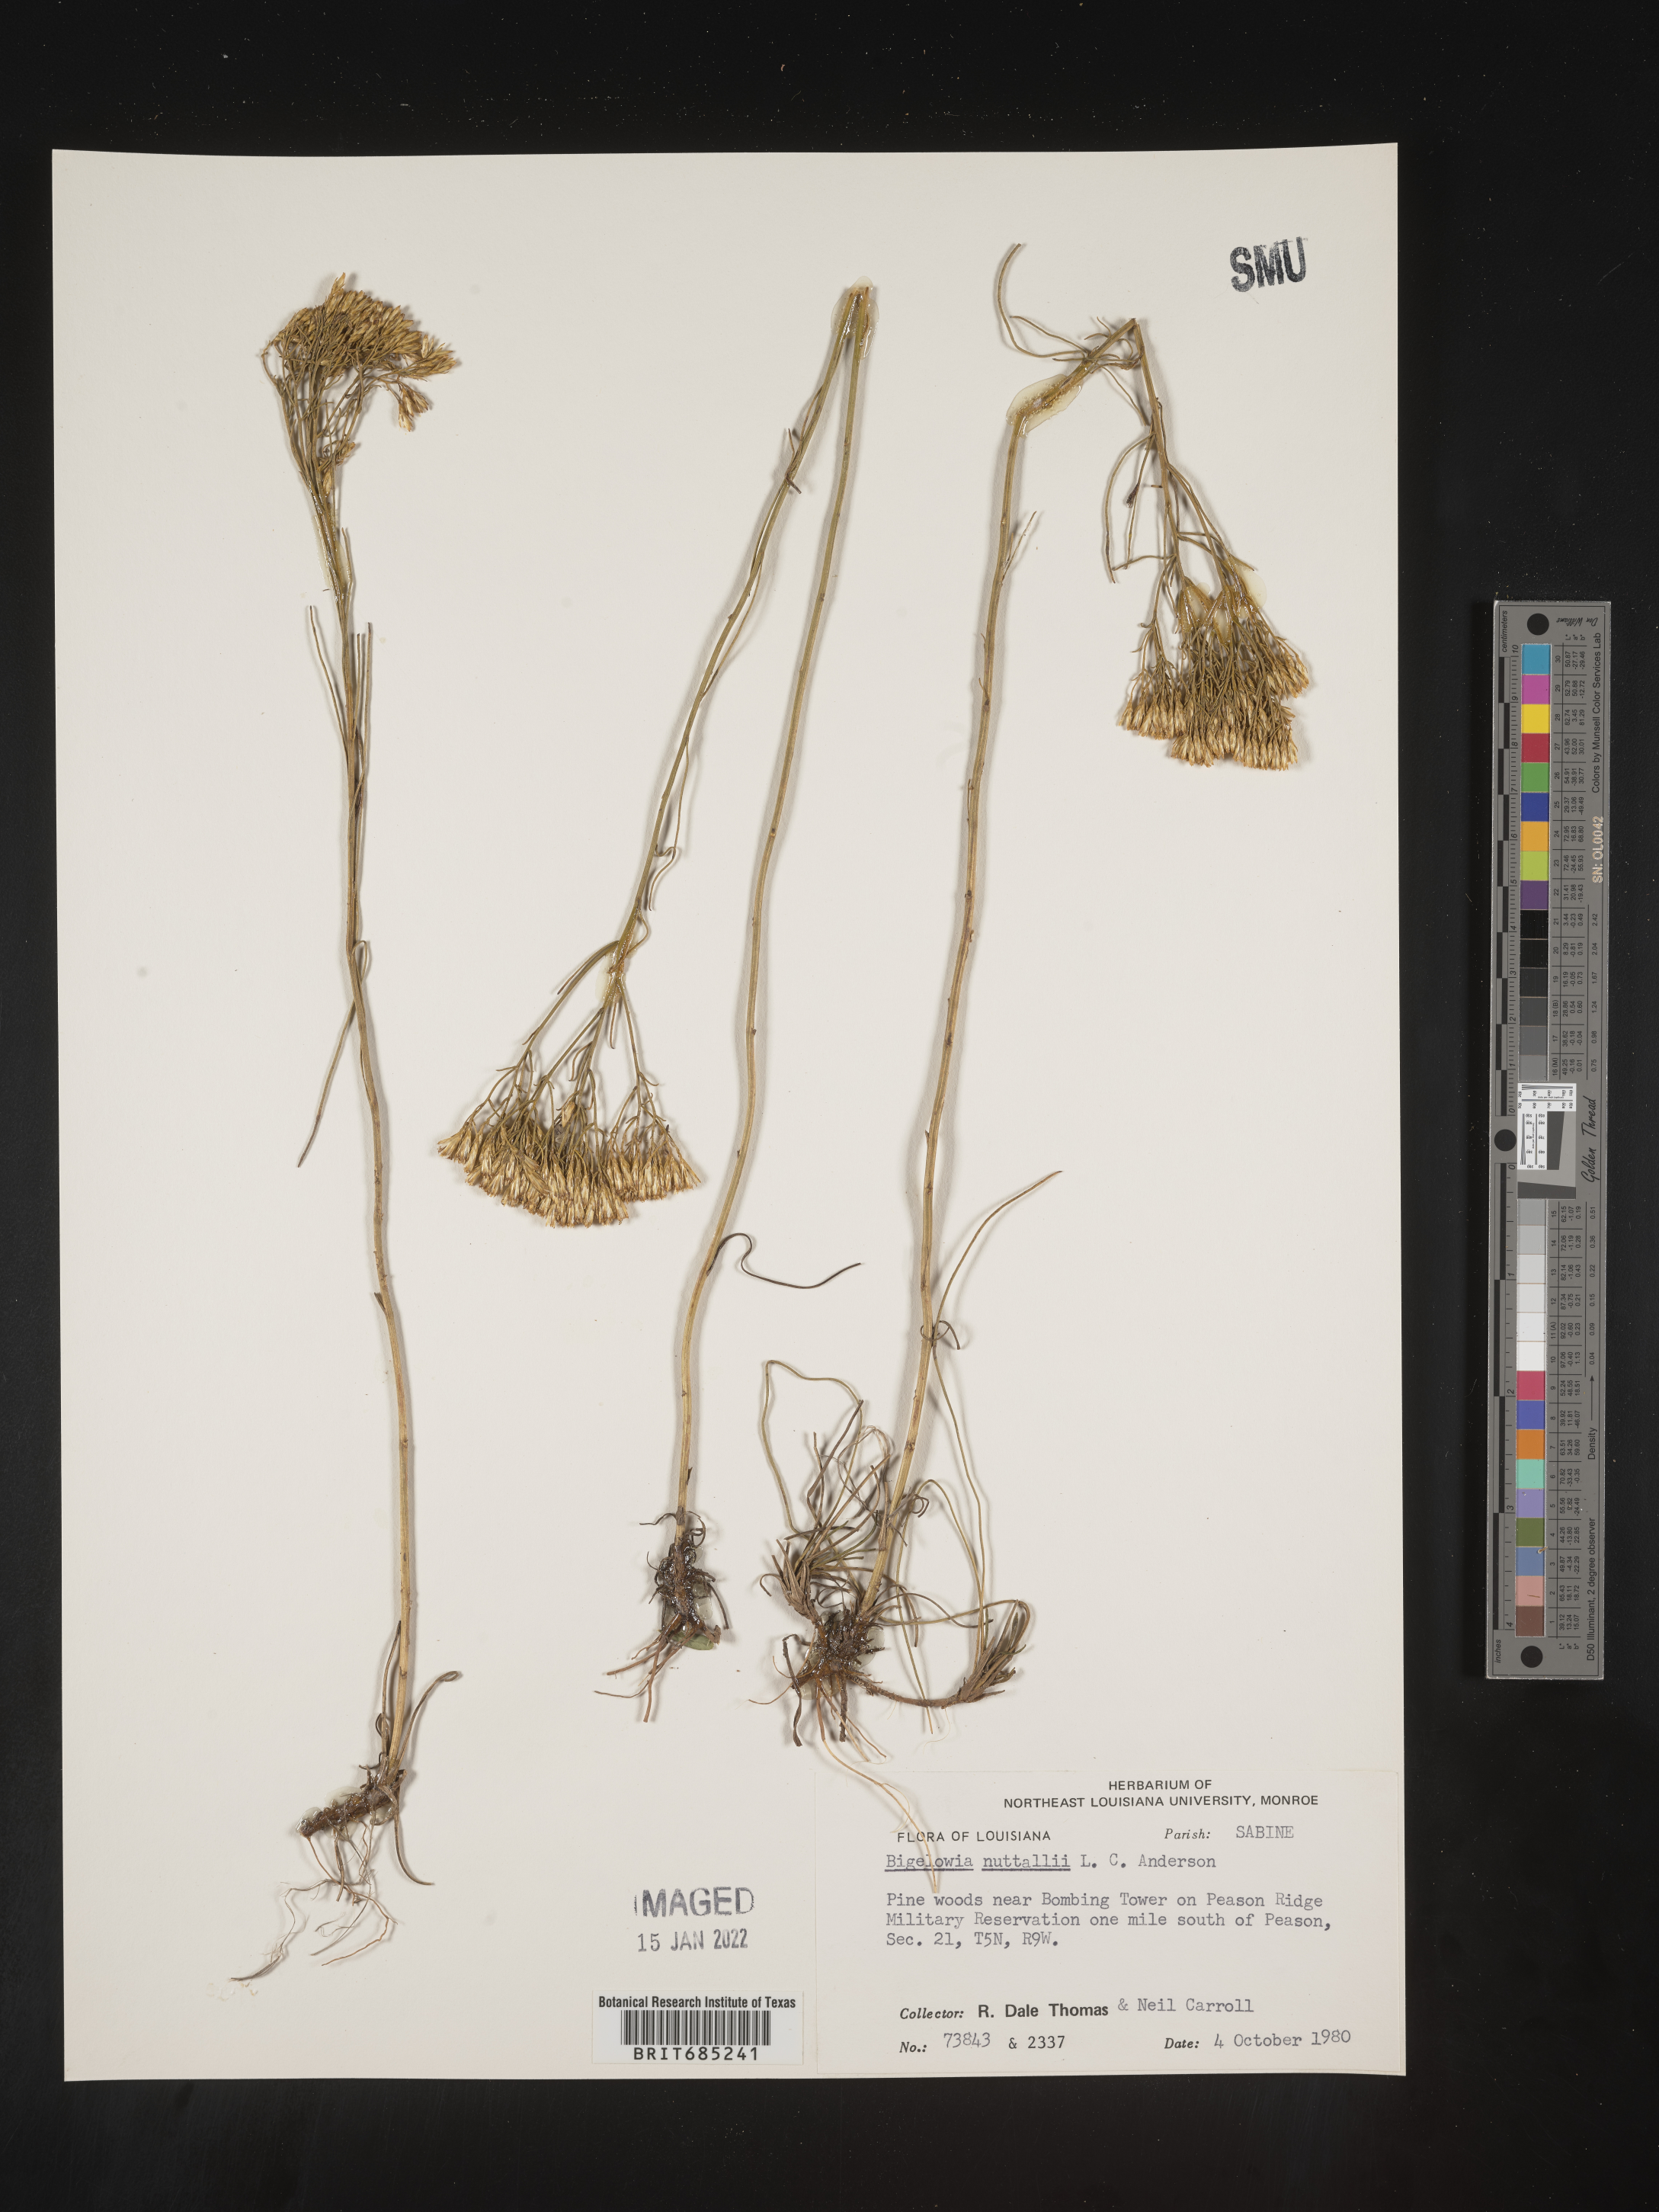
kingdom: Plantae
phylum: Tracheophyta
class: Magnoliopsida
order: Asterales
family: Asteraceae
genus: Bigelowia
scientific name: Bigelowia nuttallii
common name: Nuttall's rayless-goldenrod
